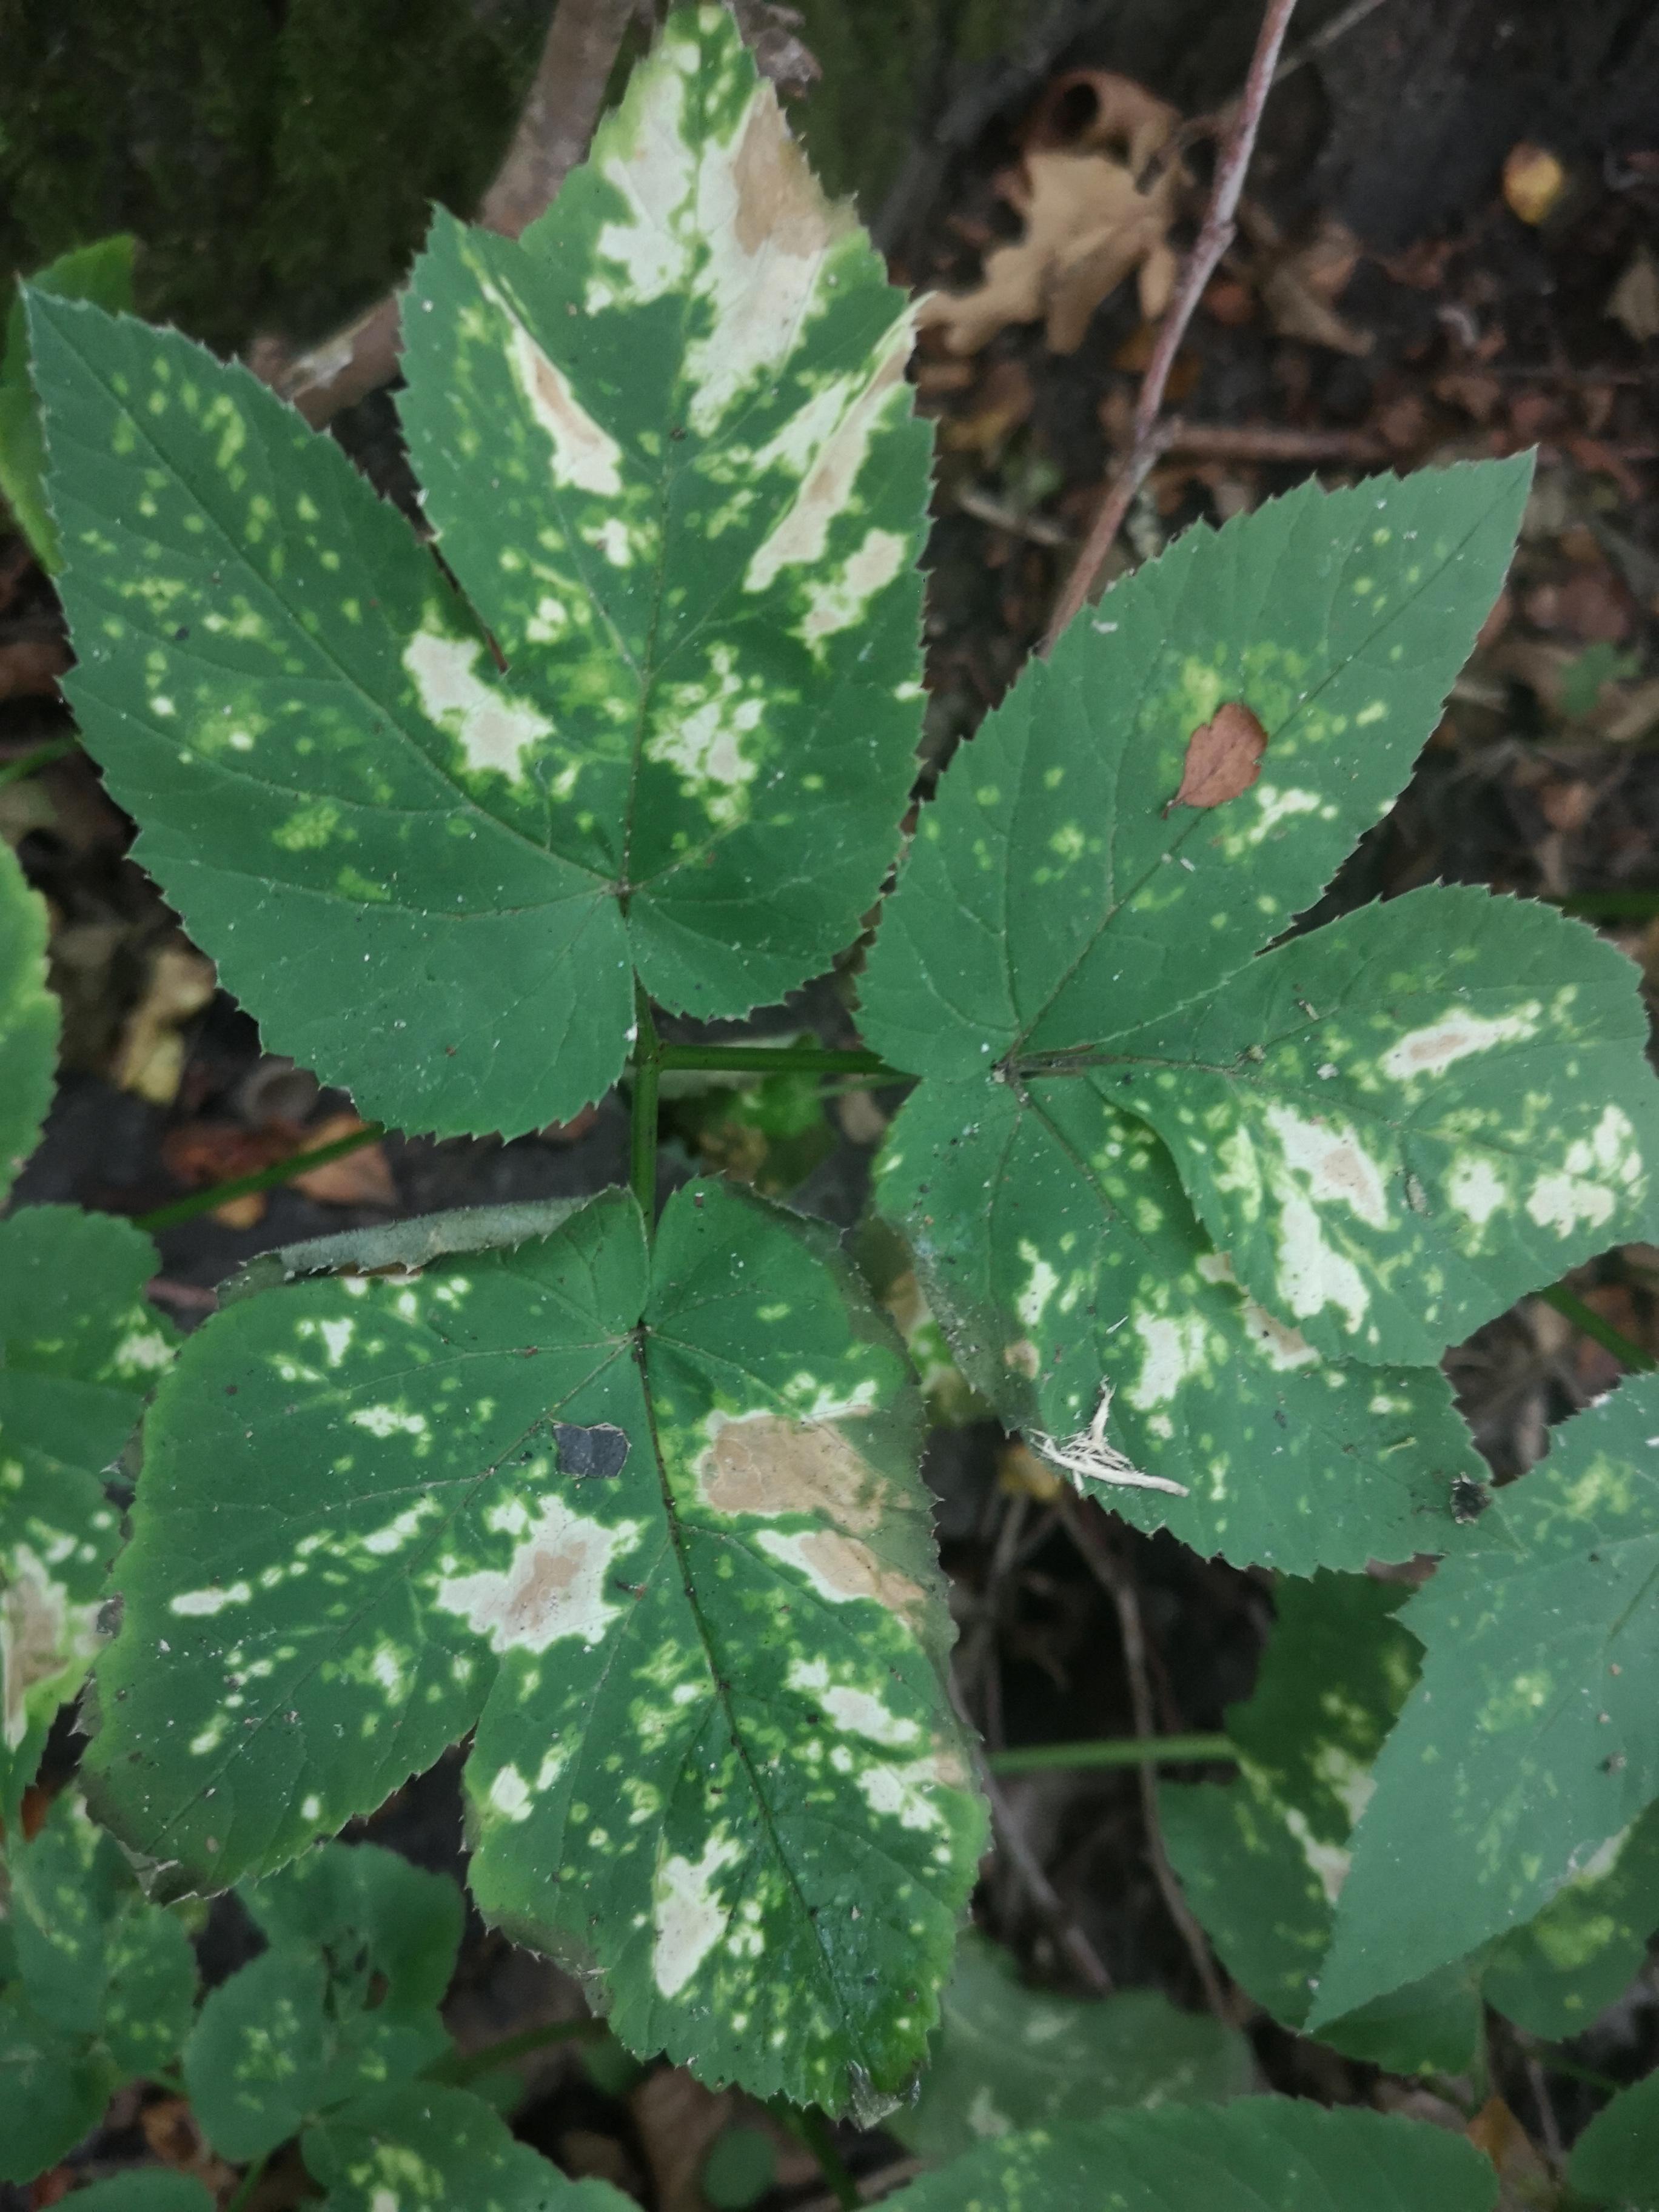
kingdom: Chromista
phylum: Oomycota
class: Peronosporea
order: Peronosporales
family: Peronosporaceae
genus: Peronospora
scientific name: Peronospora crustosa
